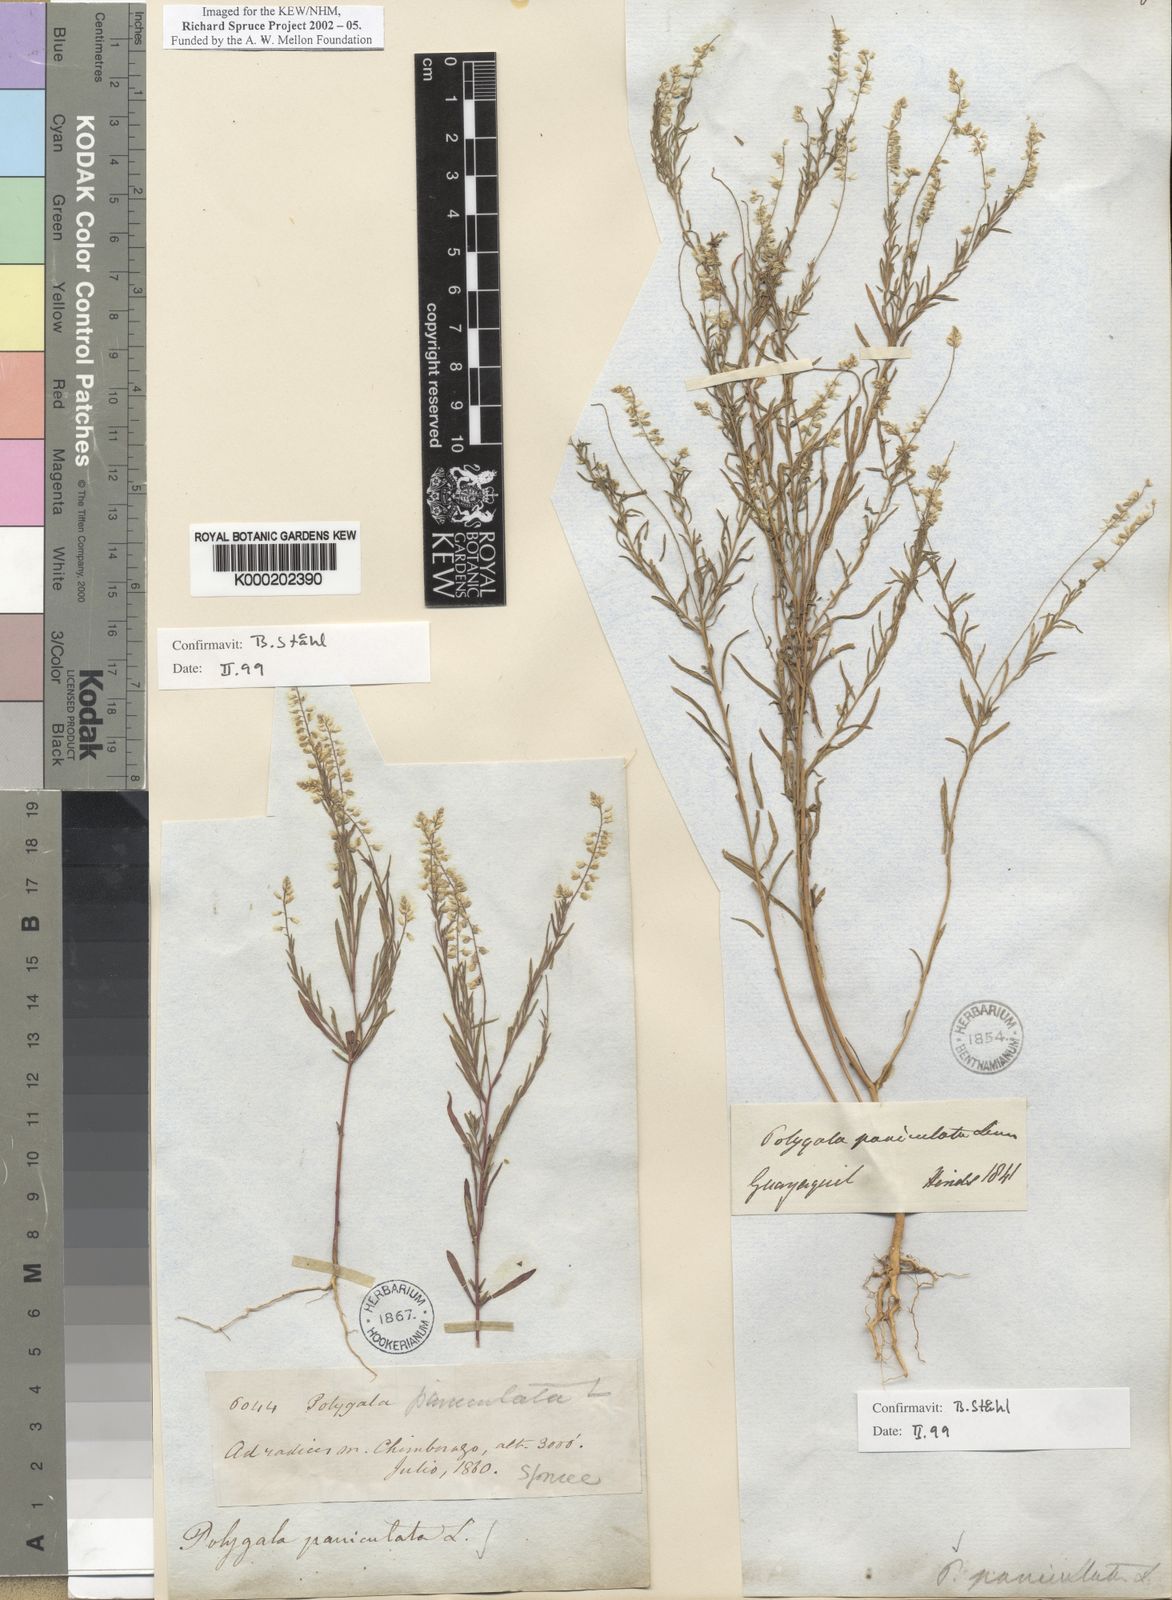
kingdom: Plantae
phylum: Tracheophyta
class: Magnoliopsida
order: Fabales
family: Polygalaceae
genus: Polygala
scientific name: Polygala paniculata
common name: Orosne
